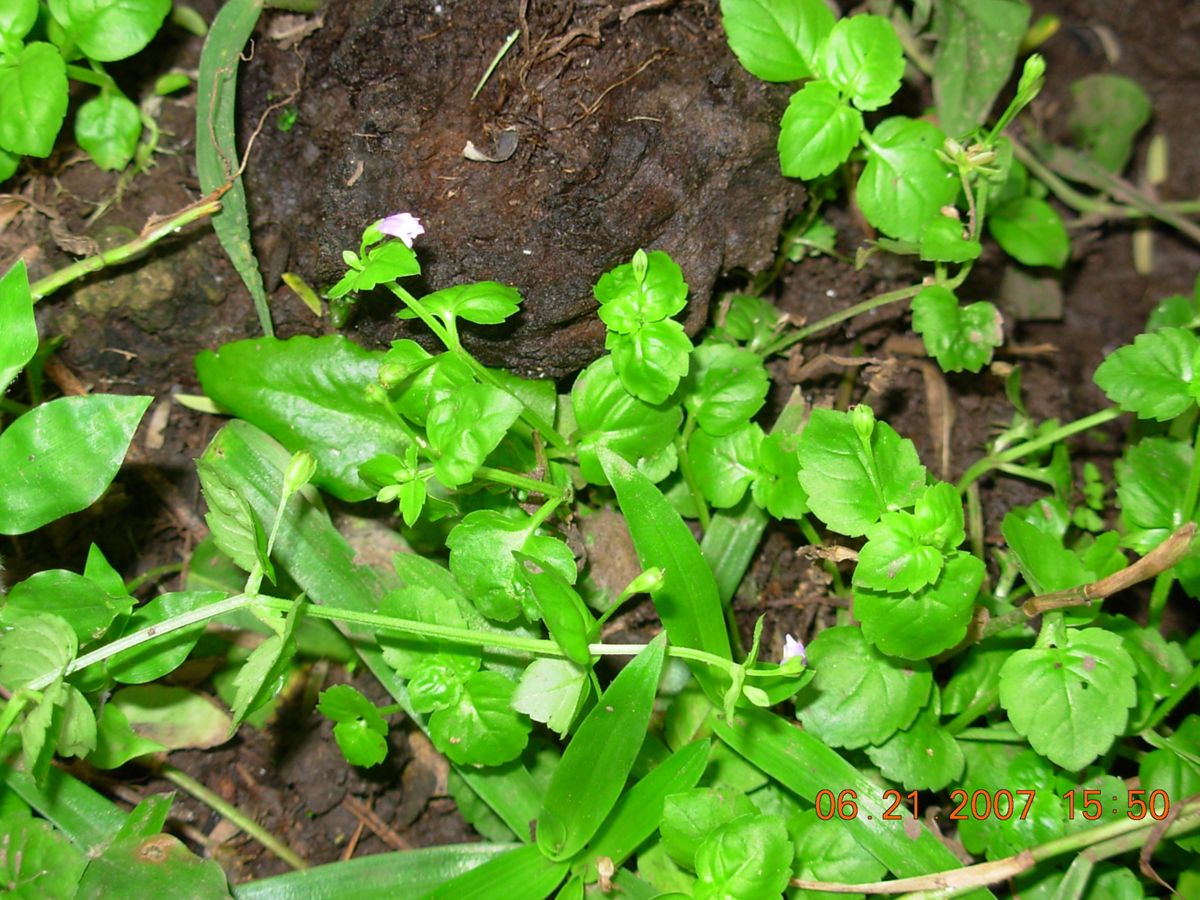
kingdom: Plantae
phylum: Tracheophyta
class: Magnoliopsida
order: Lamiales
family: Linderniaceae
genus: Torenia
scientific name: Torenia crustacea
